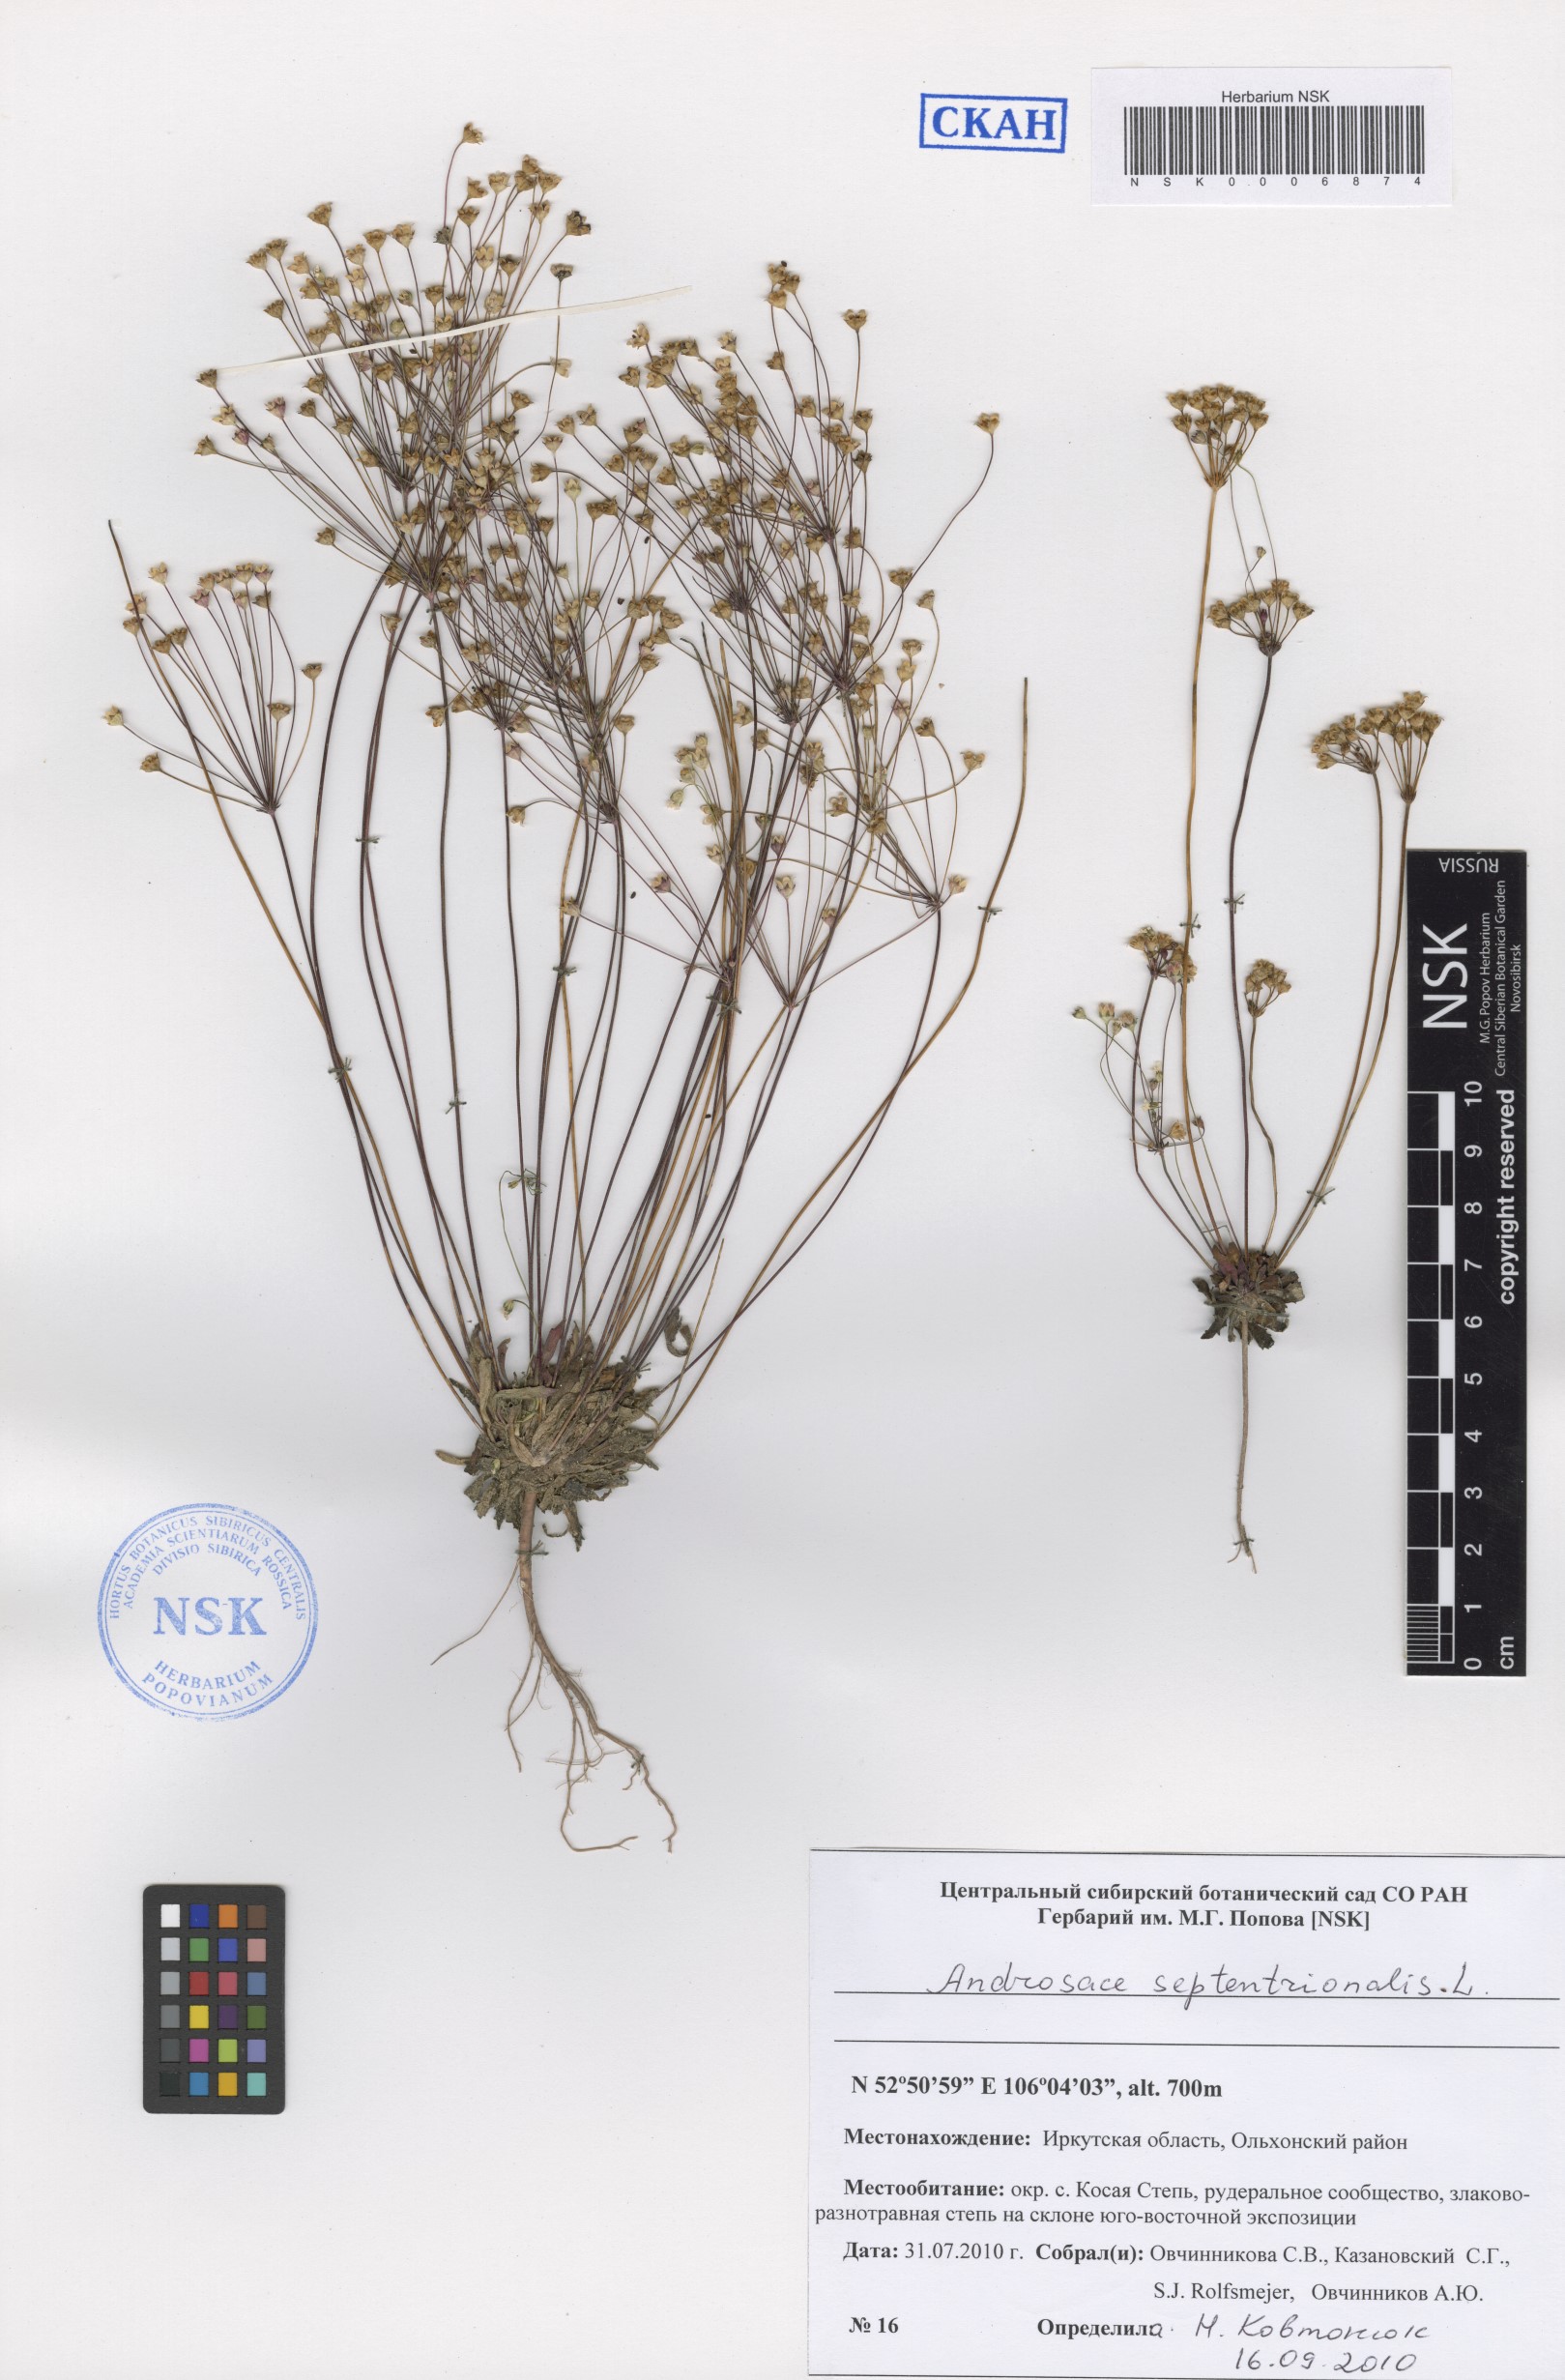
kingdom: Plantae
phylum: Tracheophyta
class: Magnoliopsida
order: Ericales
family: Primulaceae
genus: Androsace
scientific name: Androsace septentrionalis
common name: Hairy northern fairy-candelabra
